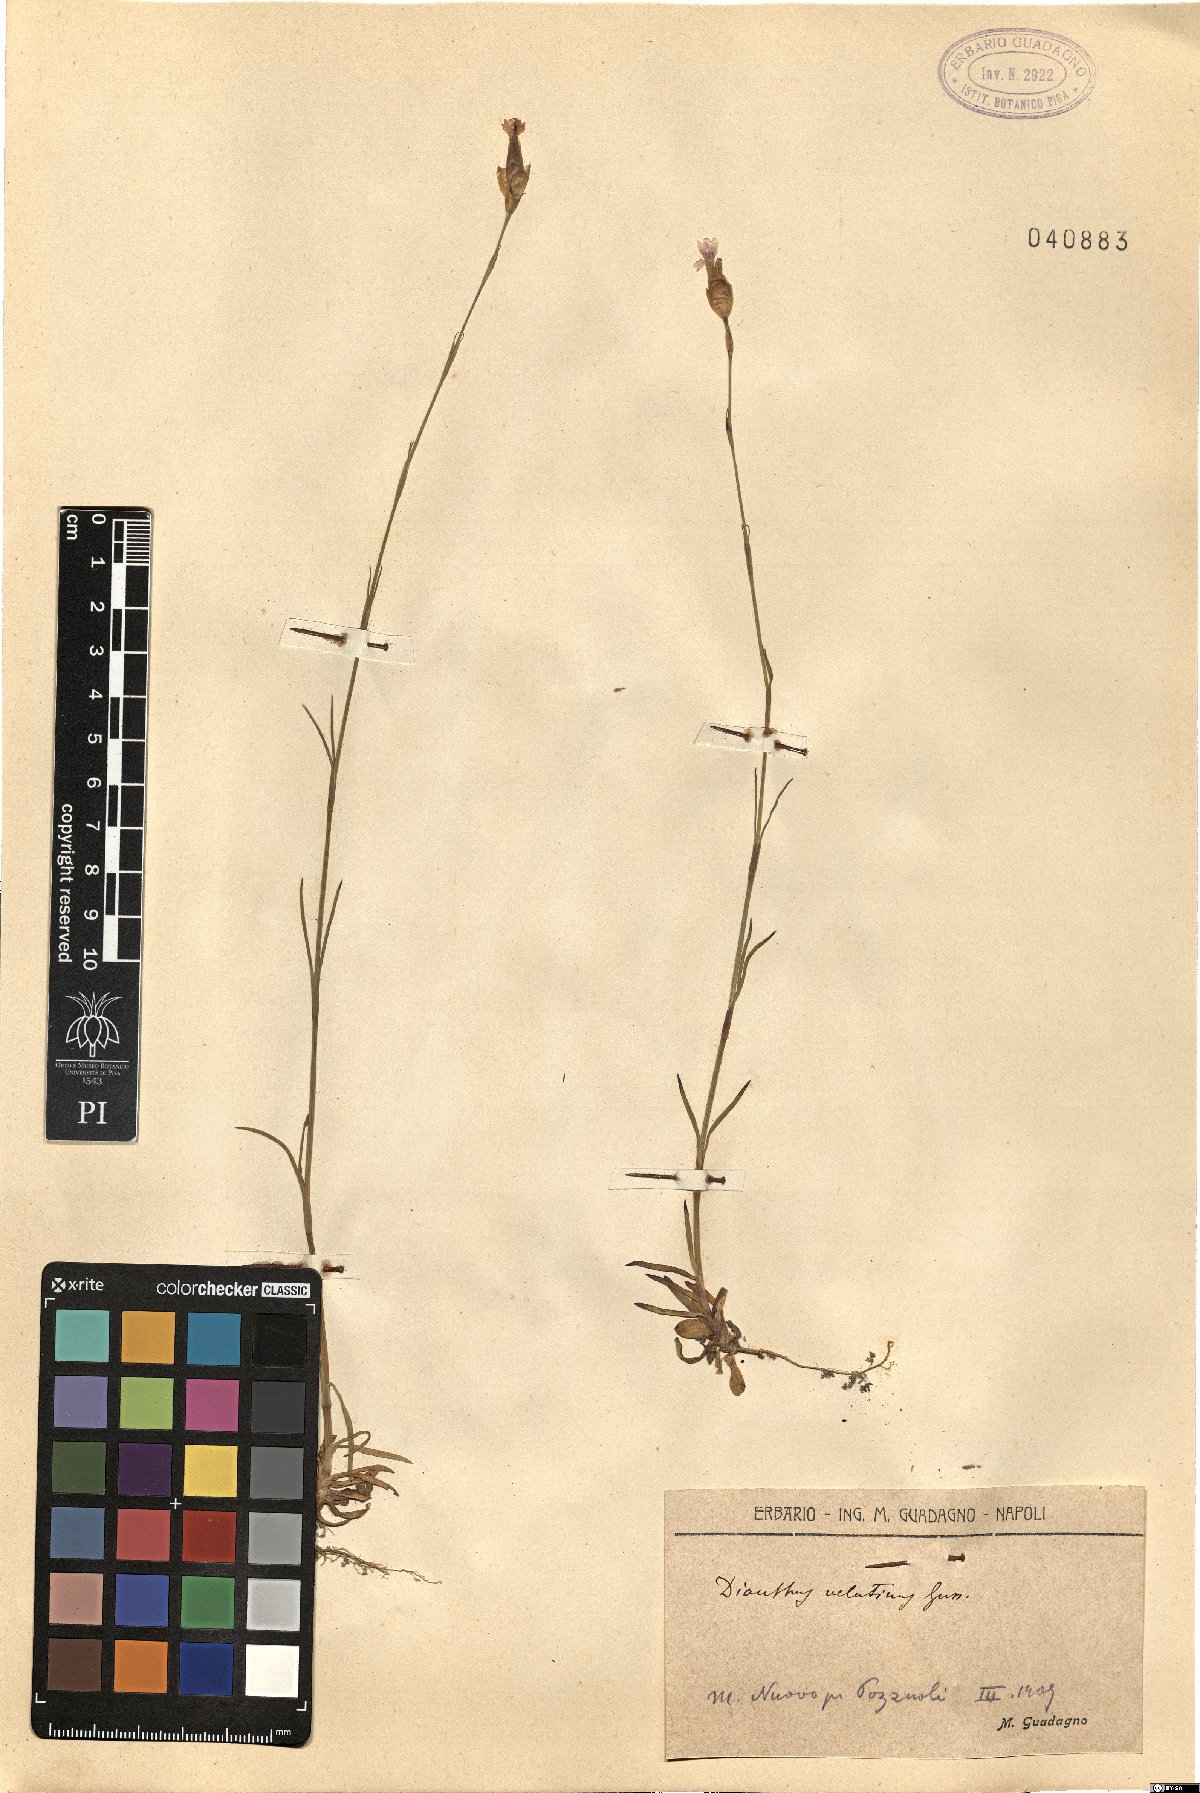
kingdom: Plantae
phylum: Tracheophyta
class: Magnoliopsida
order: Caryophyllales
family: Caryophyllaceae
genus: Petrorhagia
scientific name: Petrorhagia dubia
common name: Hairypink
